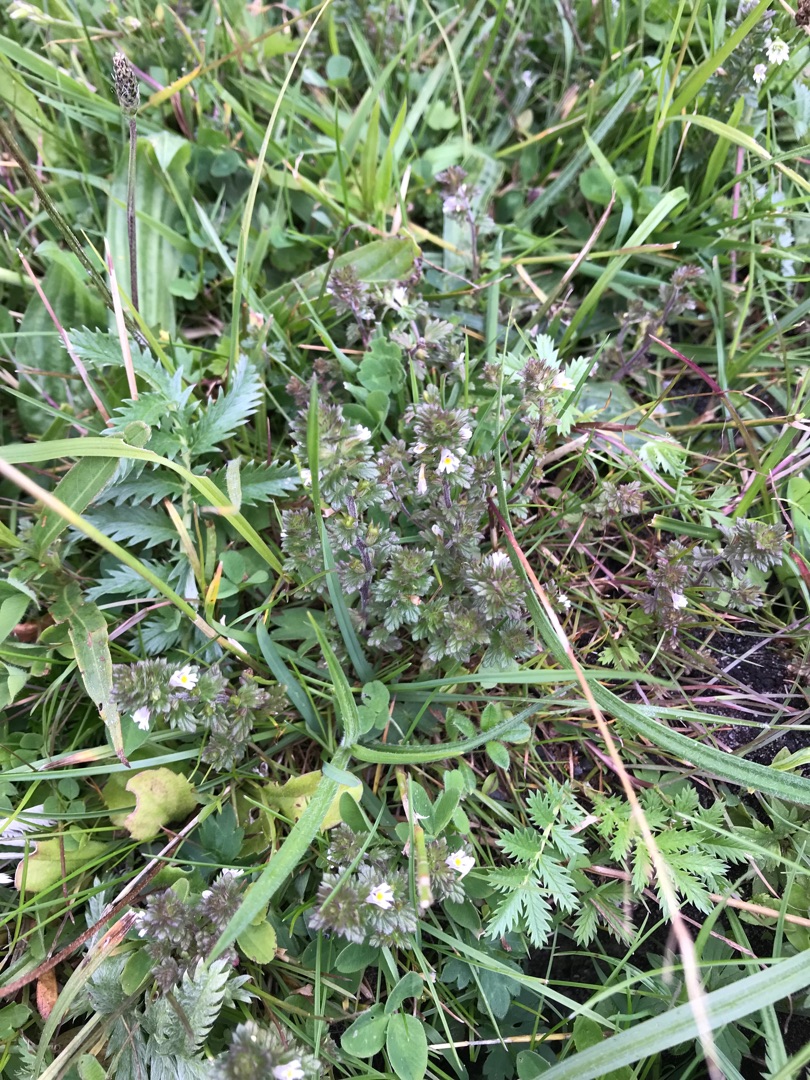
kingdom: Plantae
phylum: Tracheophyta
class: Magnoliopsida
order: Lamiales
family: Orobanchaceae
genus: Euphrasia
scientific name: Euphrasia stricta
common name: Spids øjentrøst
